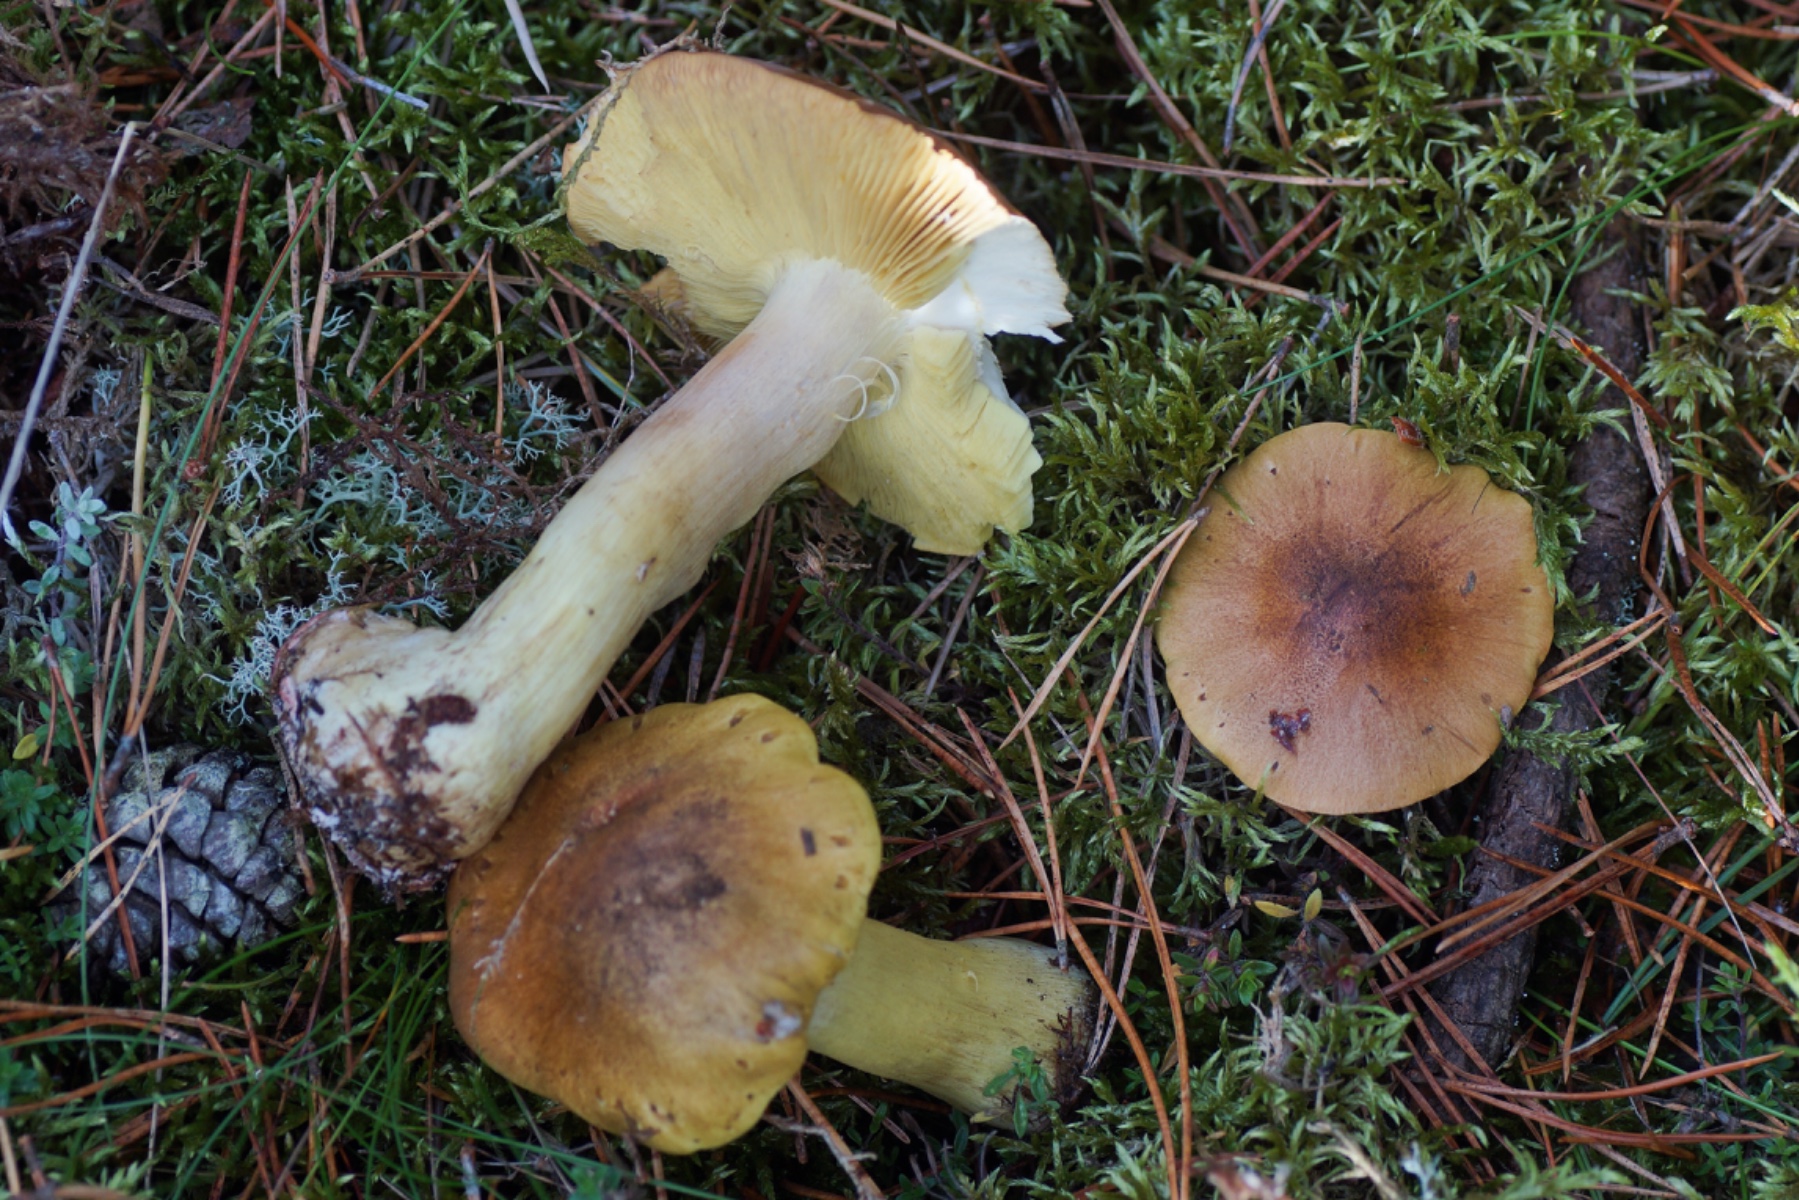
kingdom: Fungi
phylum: Basidiomycota
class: Agaricomycetes
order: Agaricales
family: Tricholomataceae
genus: Tricholoma
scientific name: Tricholoma equestre
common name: ægte ridderhat
